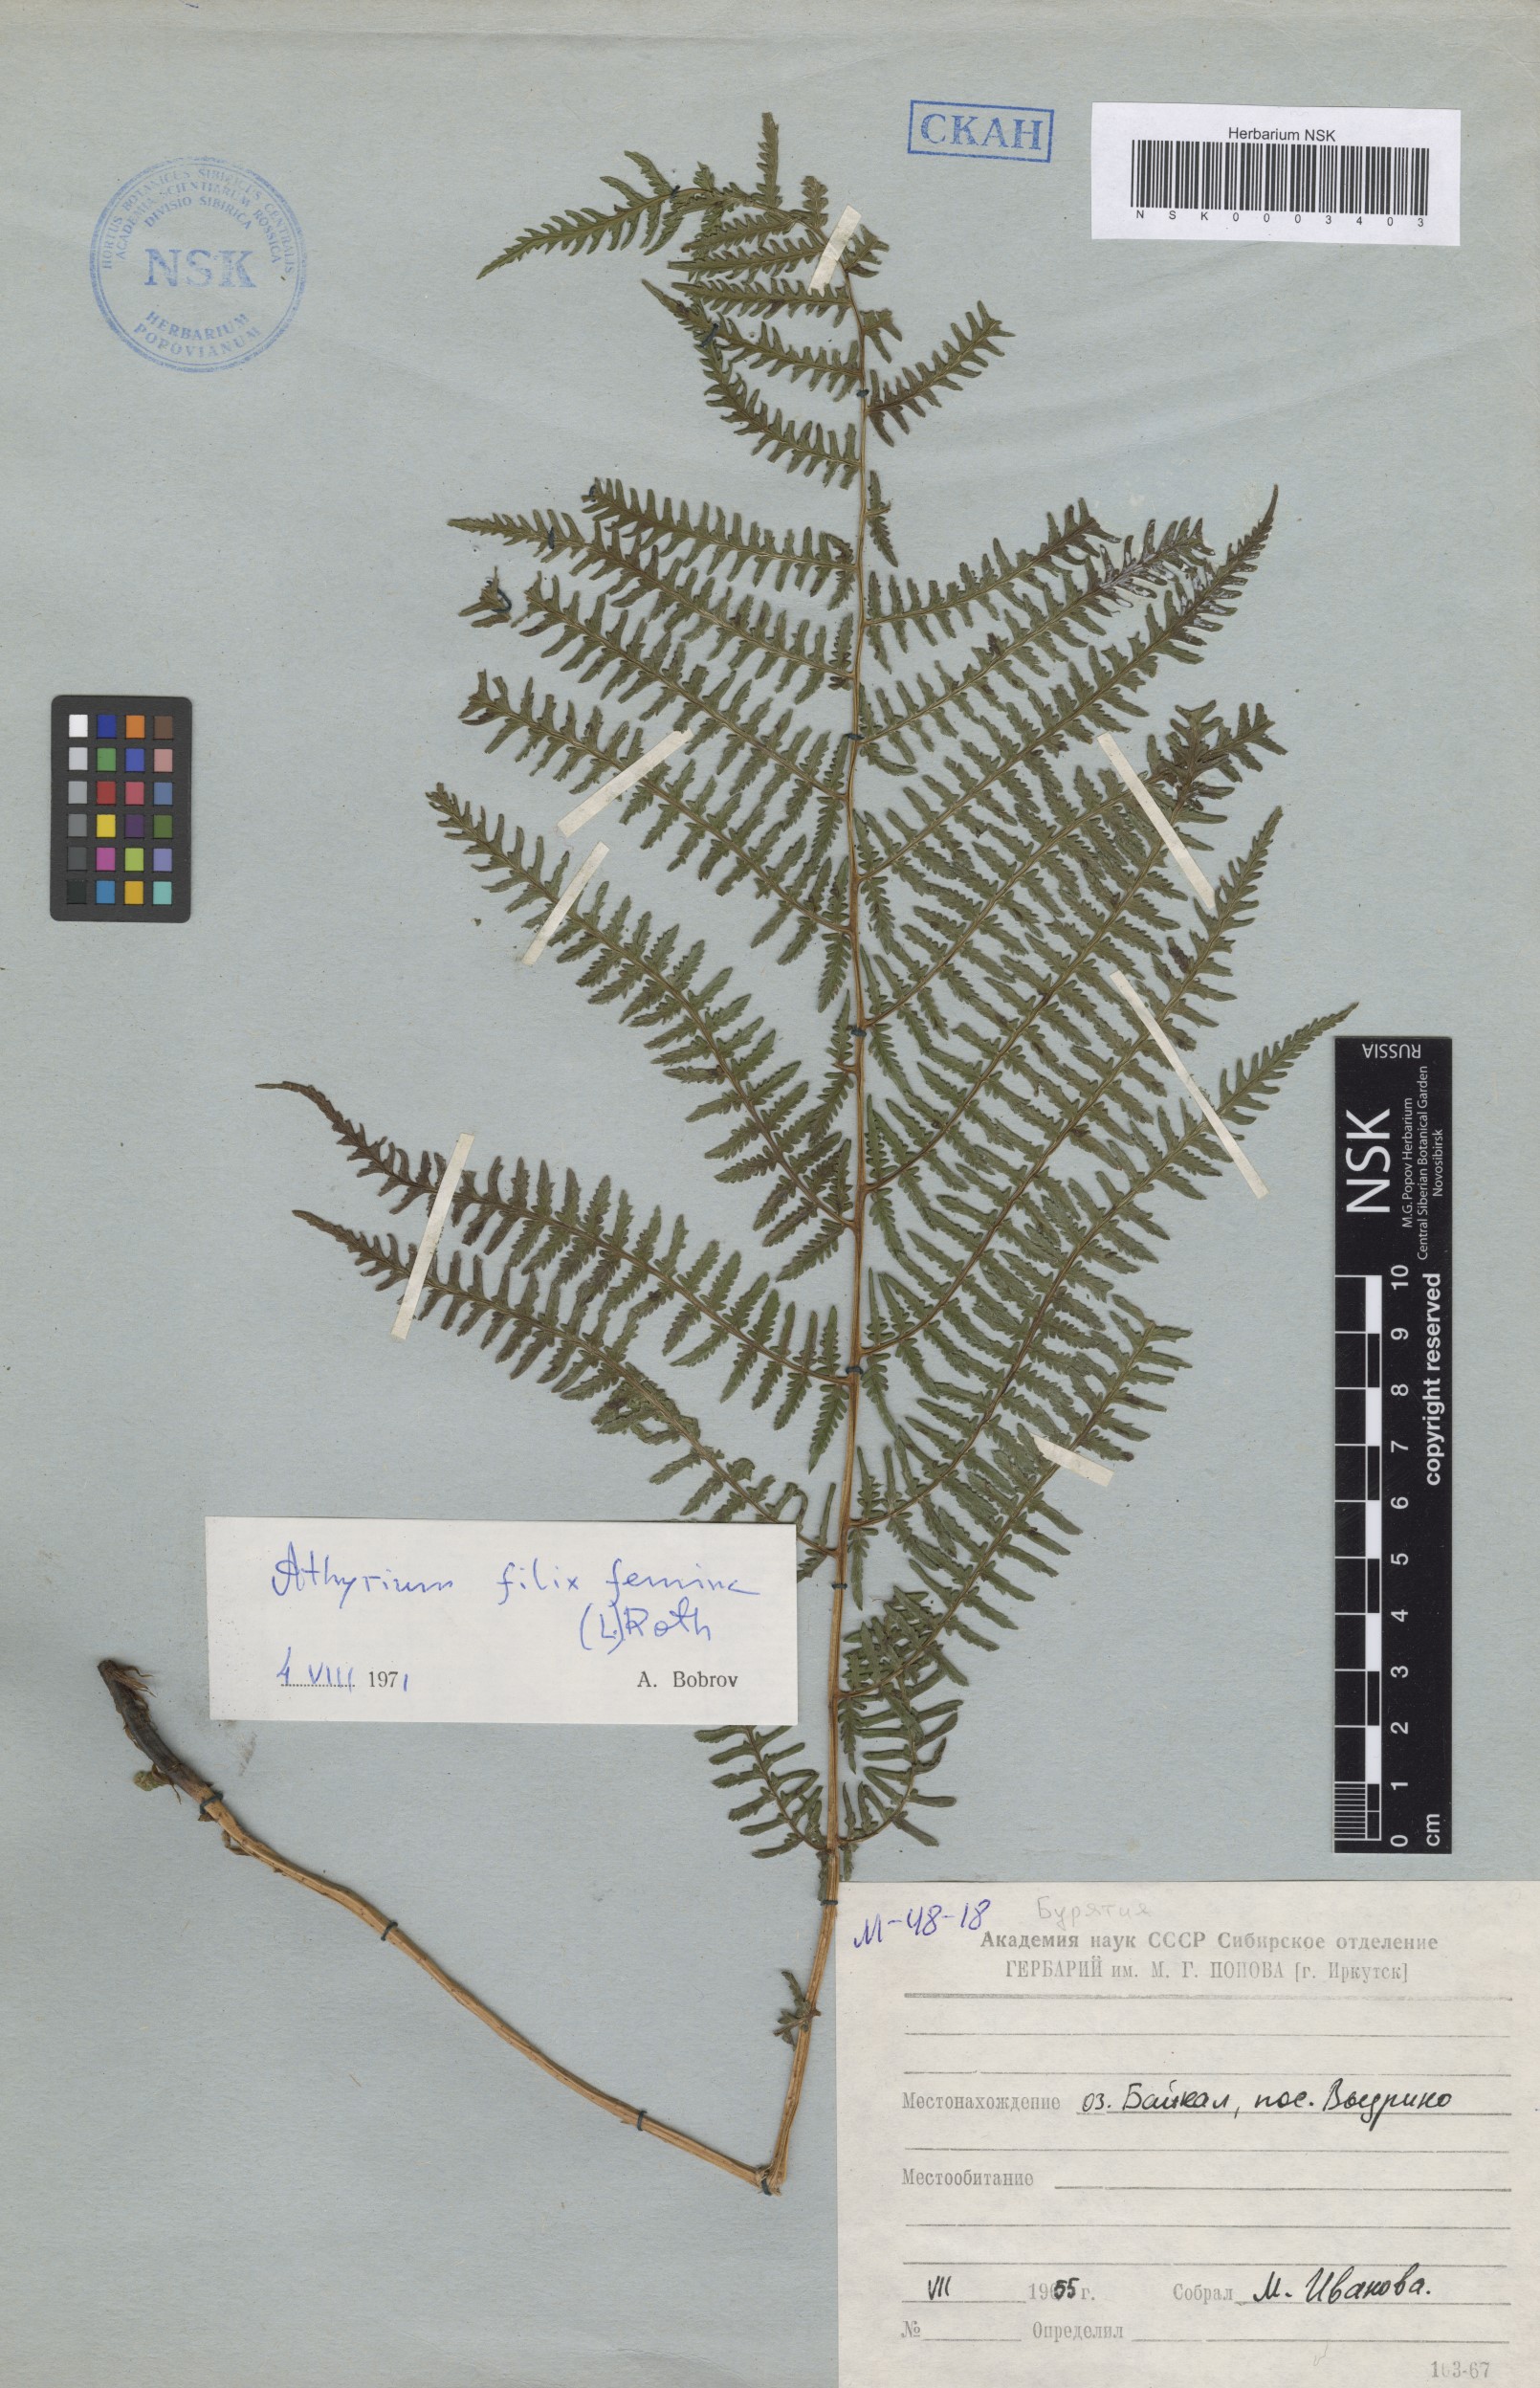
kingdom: Plantae
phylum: Tracheophyta
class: Polypodiopsida
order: Polypodiales
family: Athyriaceae
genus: Athyrium
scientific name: Athyrium filix-femina
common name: Lady fern
